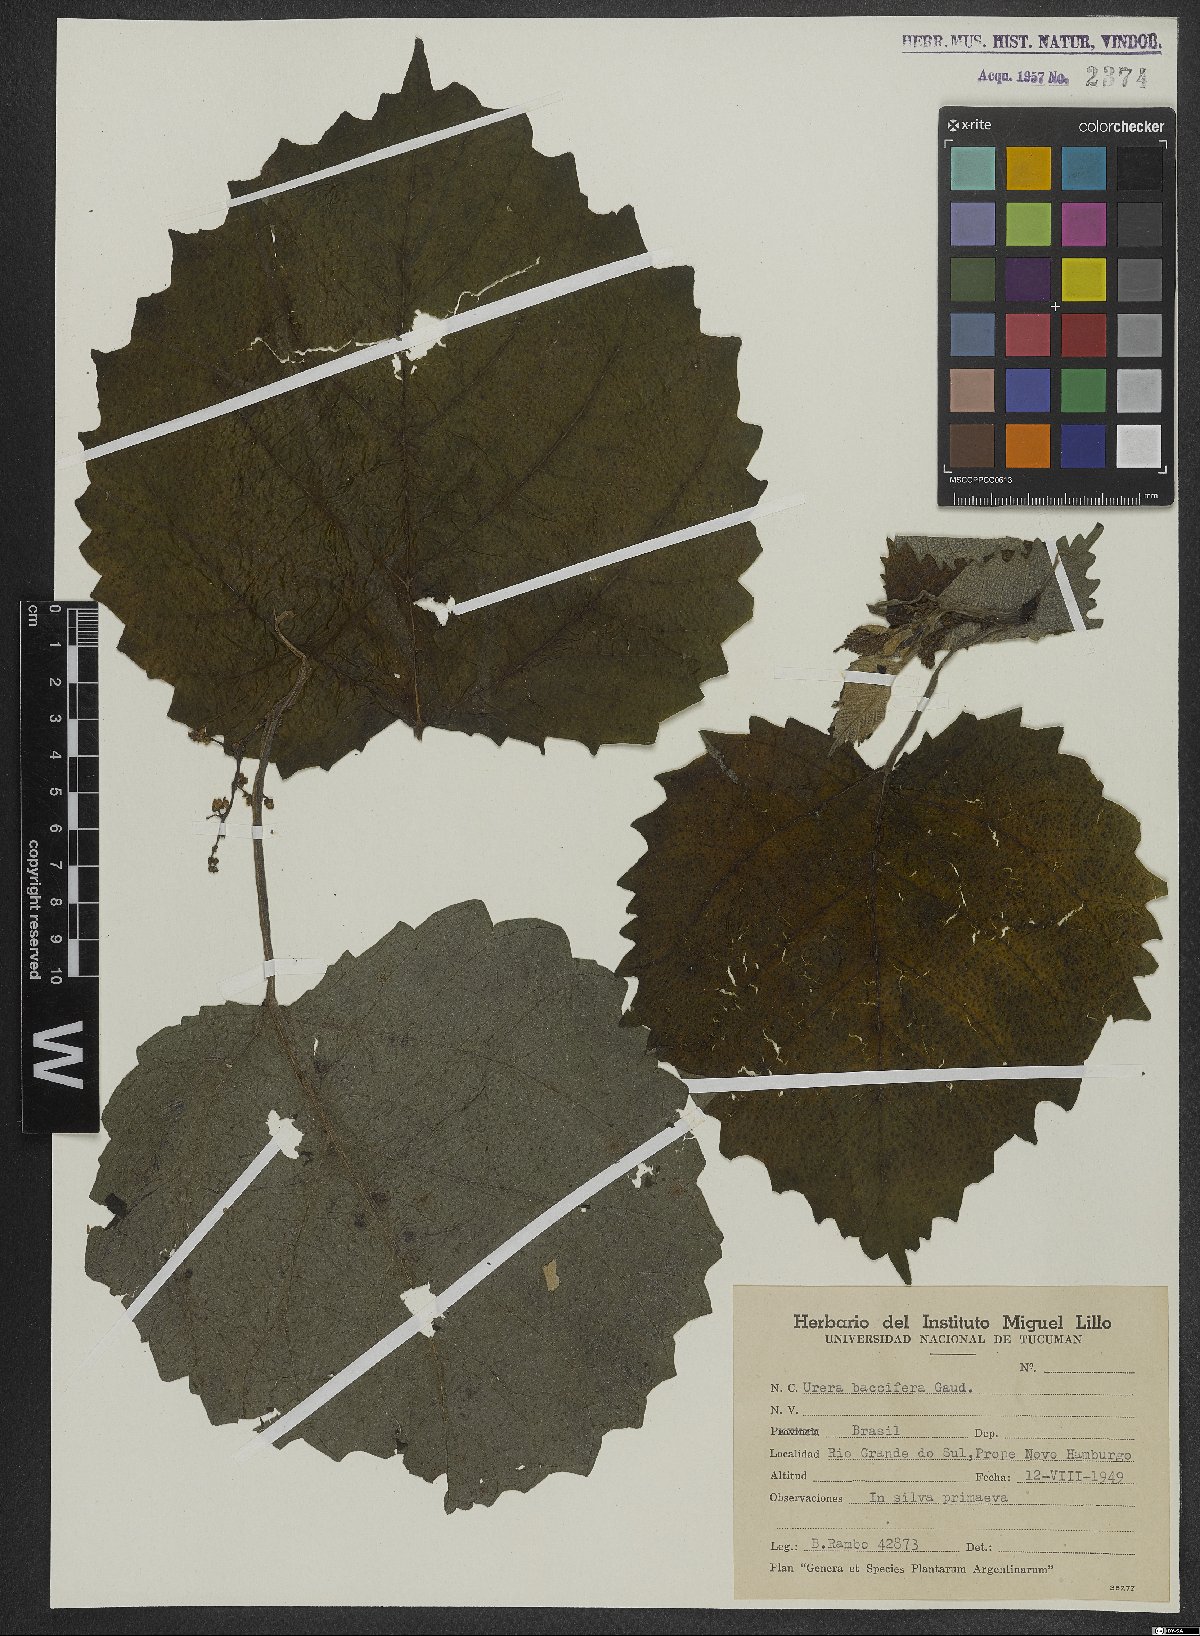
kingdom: Plantae
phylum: Tracheophyta
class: Magnoliopsida
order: Rosales
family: Urticaceae
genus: Urera
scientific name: Urera baccifera
